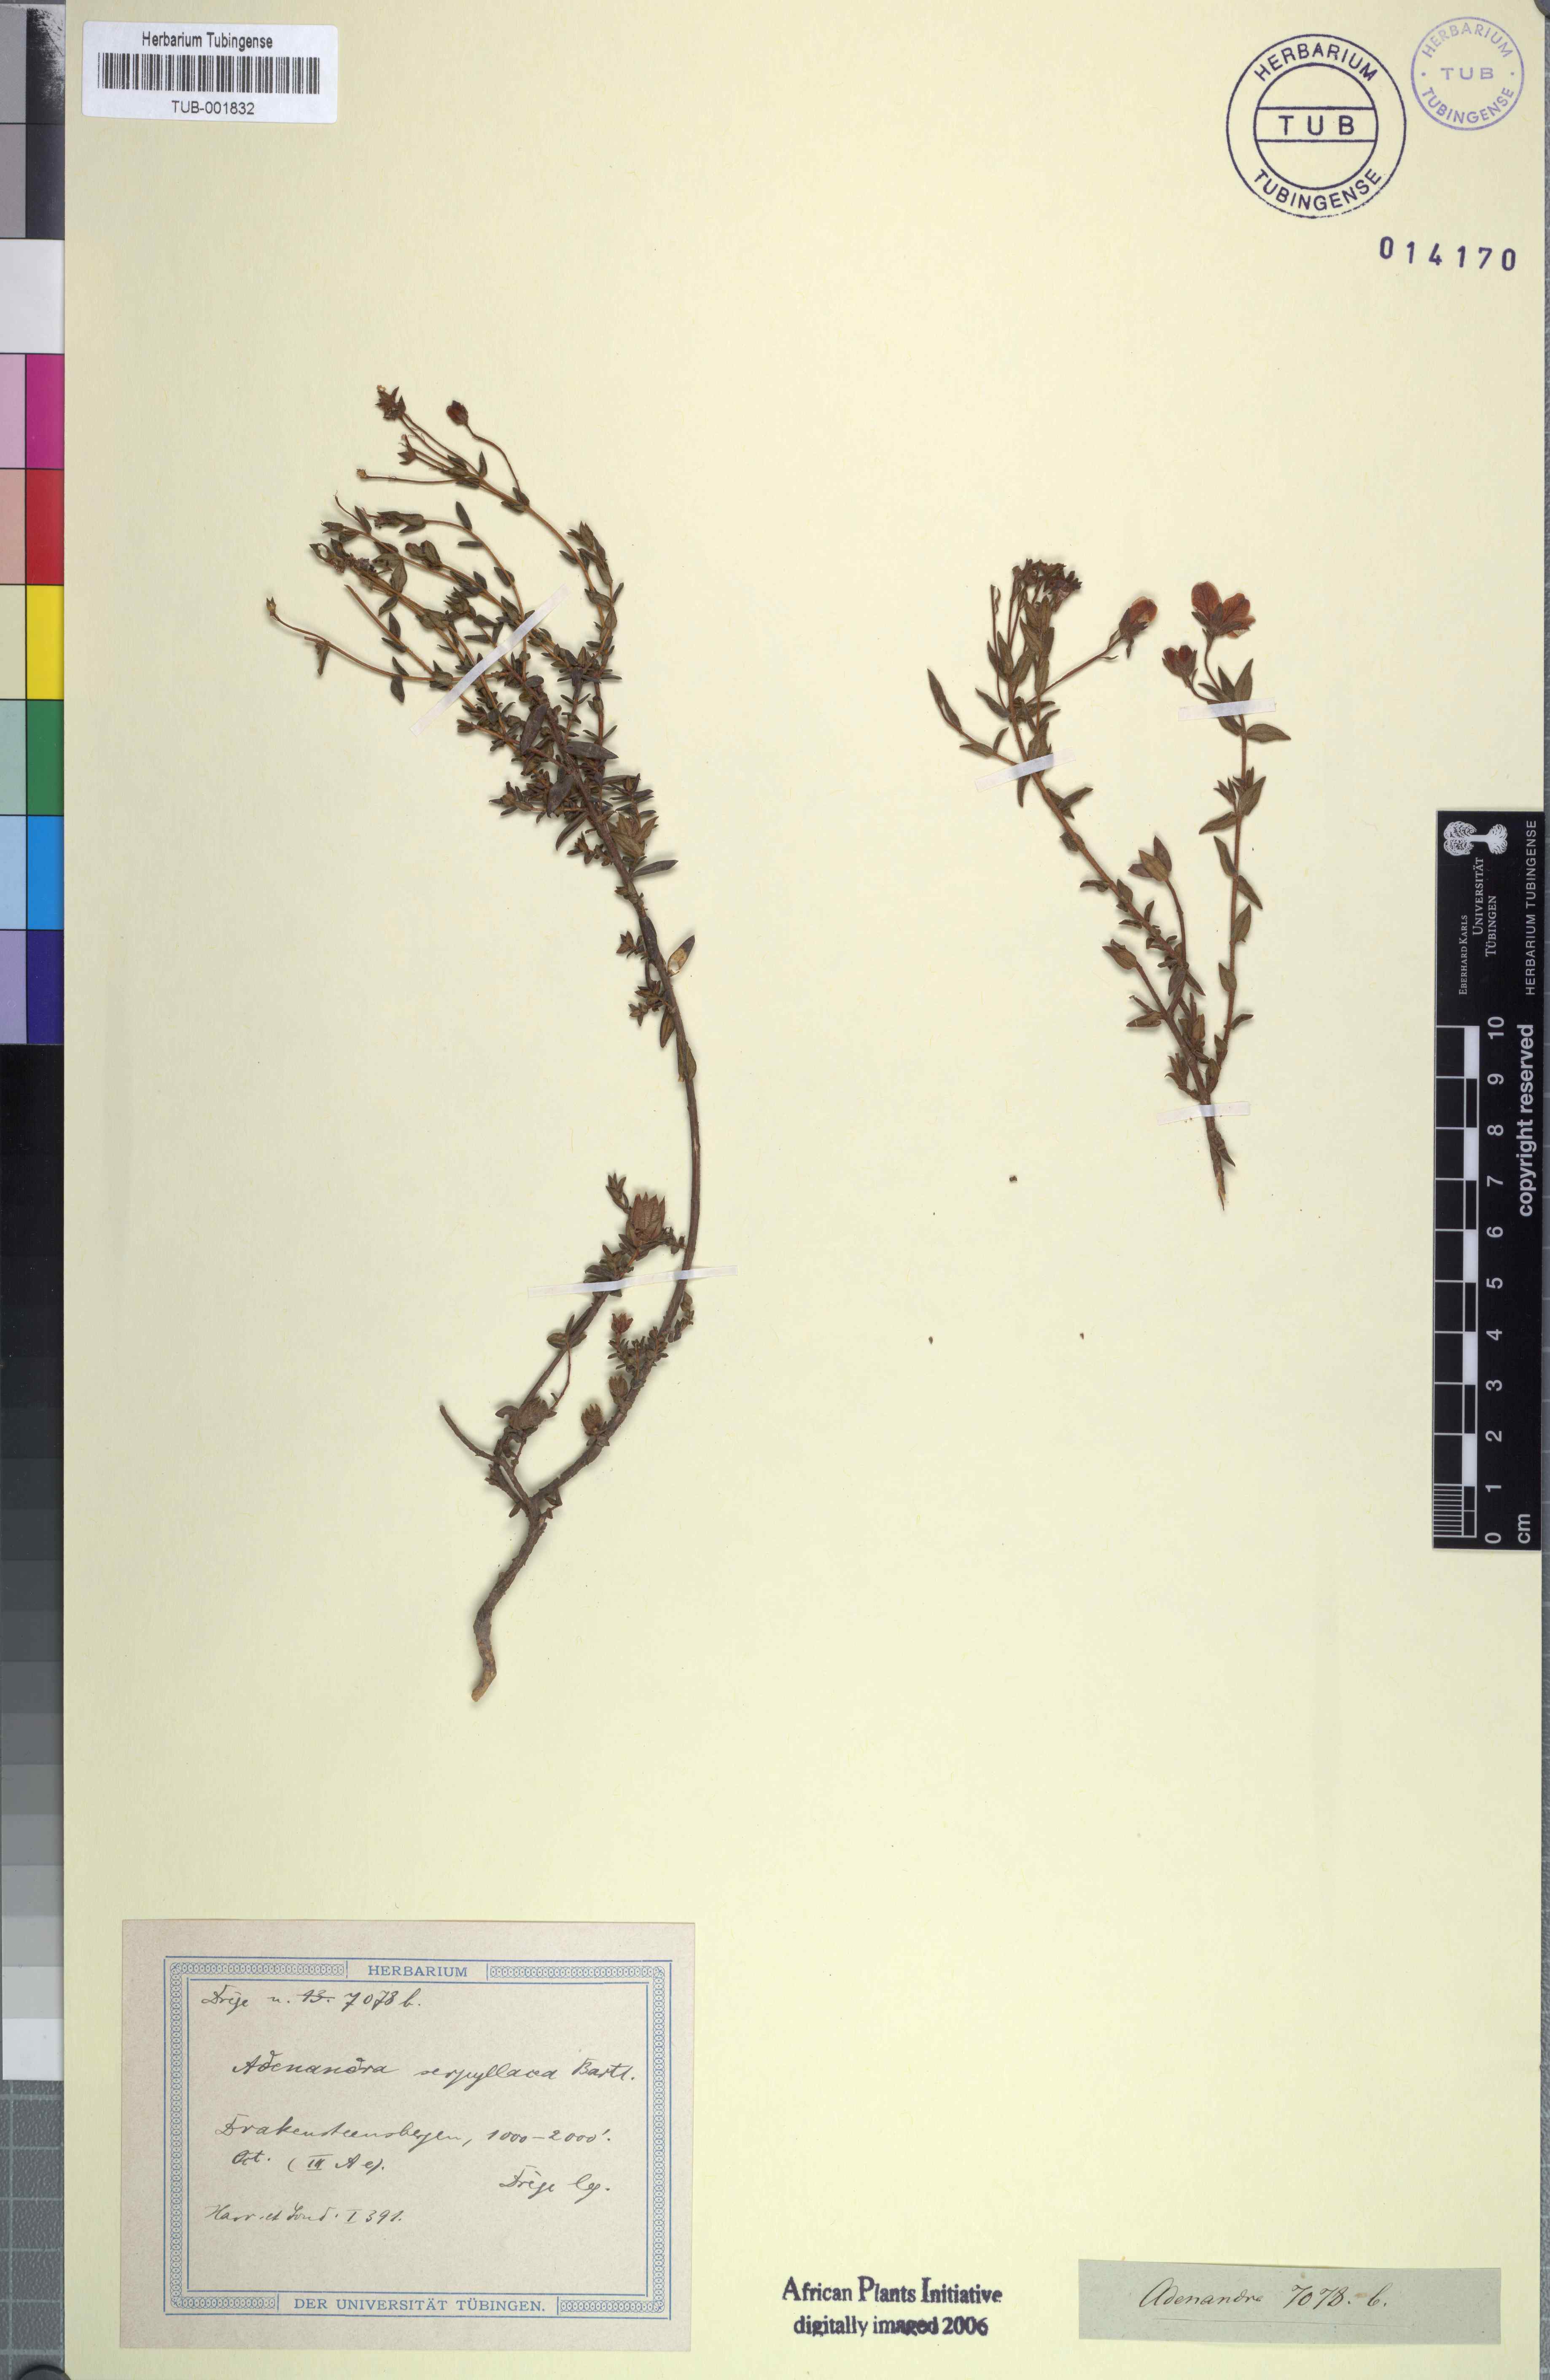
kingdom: Plantae
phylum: Tracheophyta
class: Magnoliopsida
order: Sapindales
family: Rutaceae
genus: Adenandra
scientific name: Adenandra marginata
